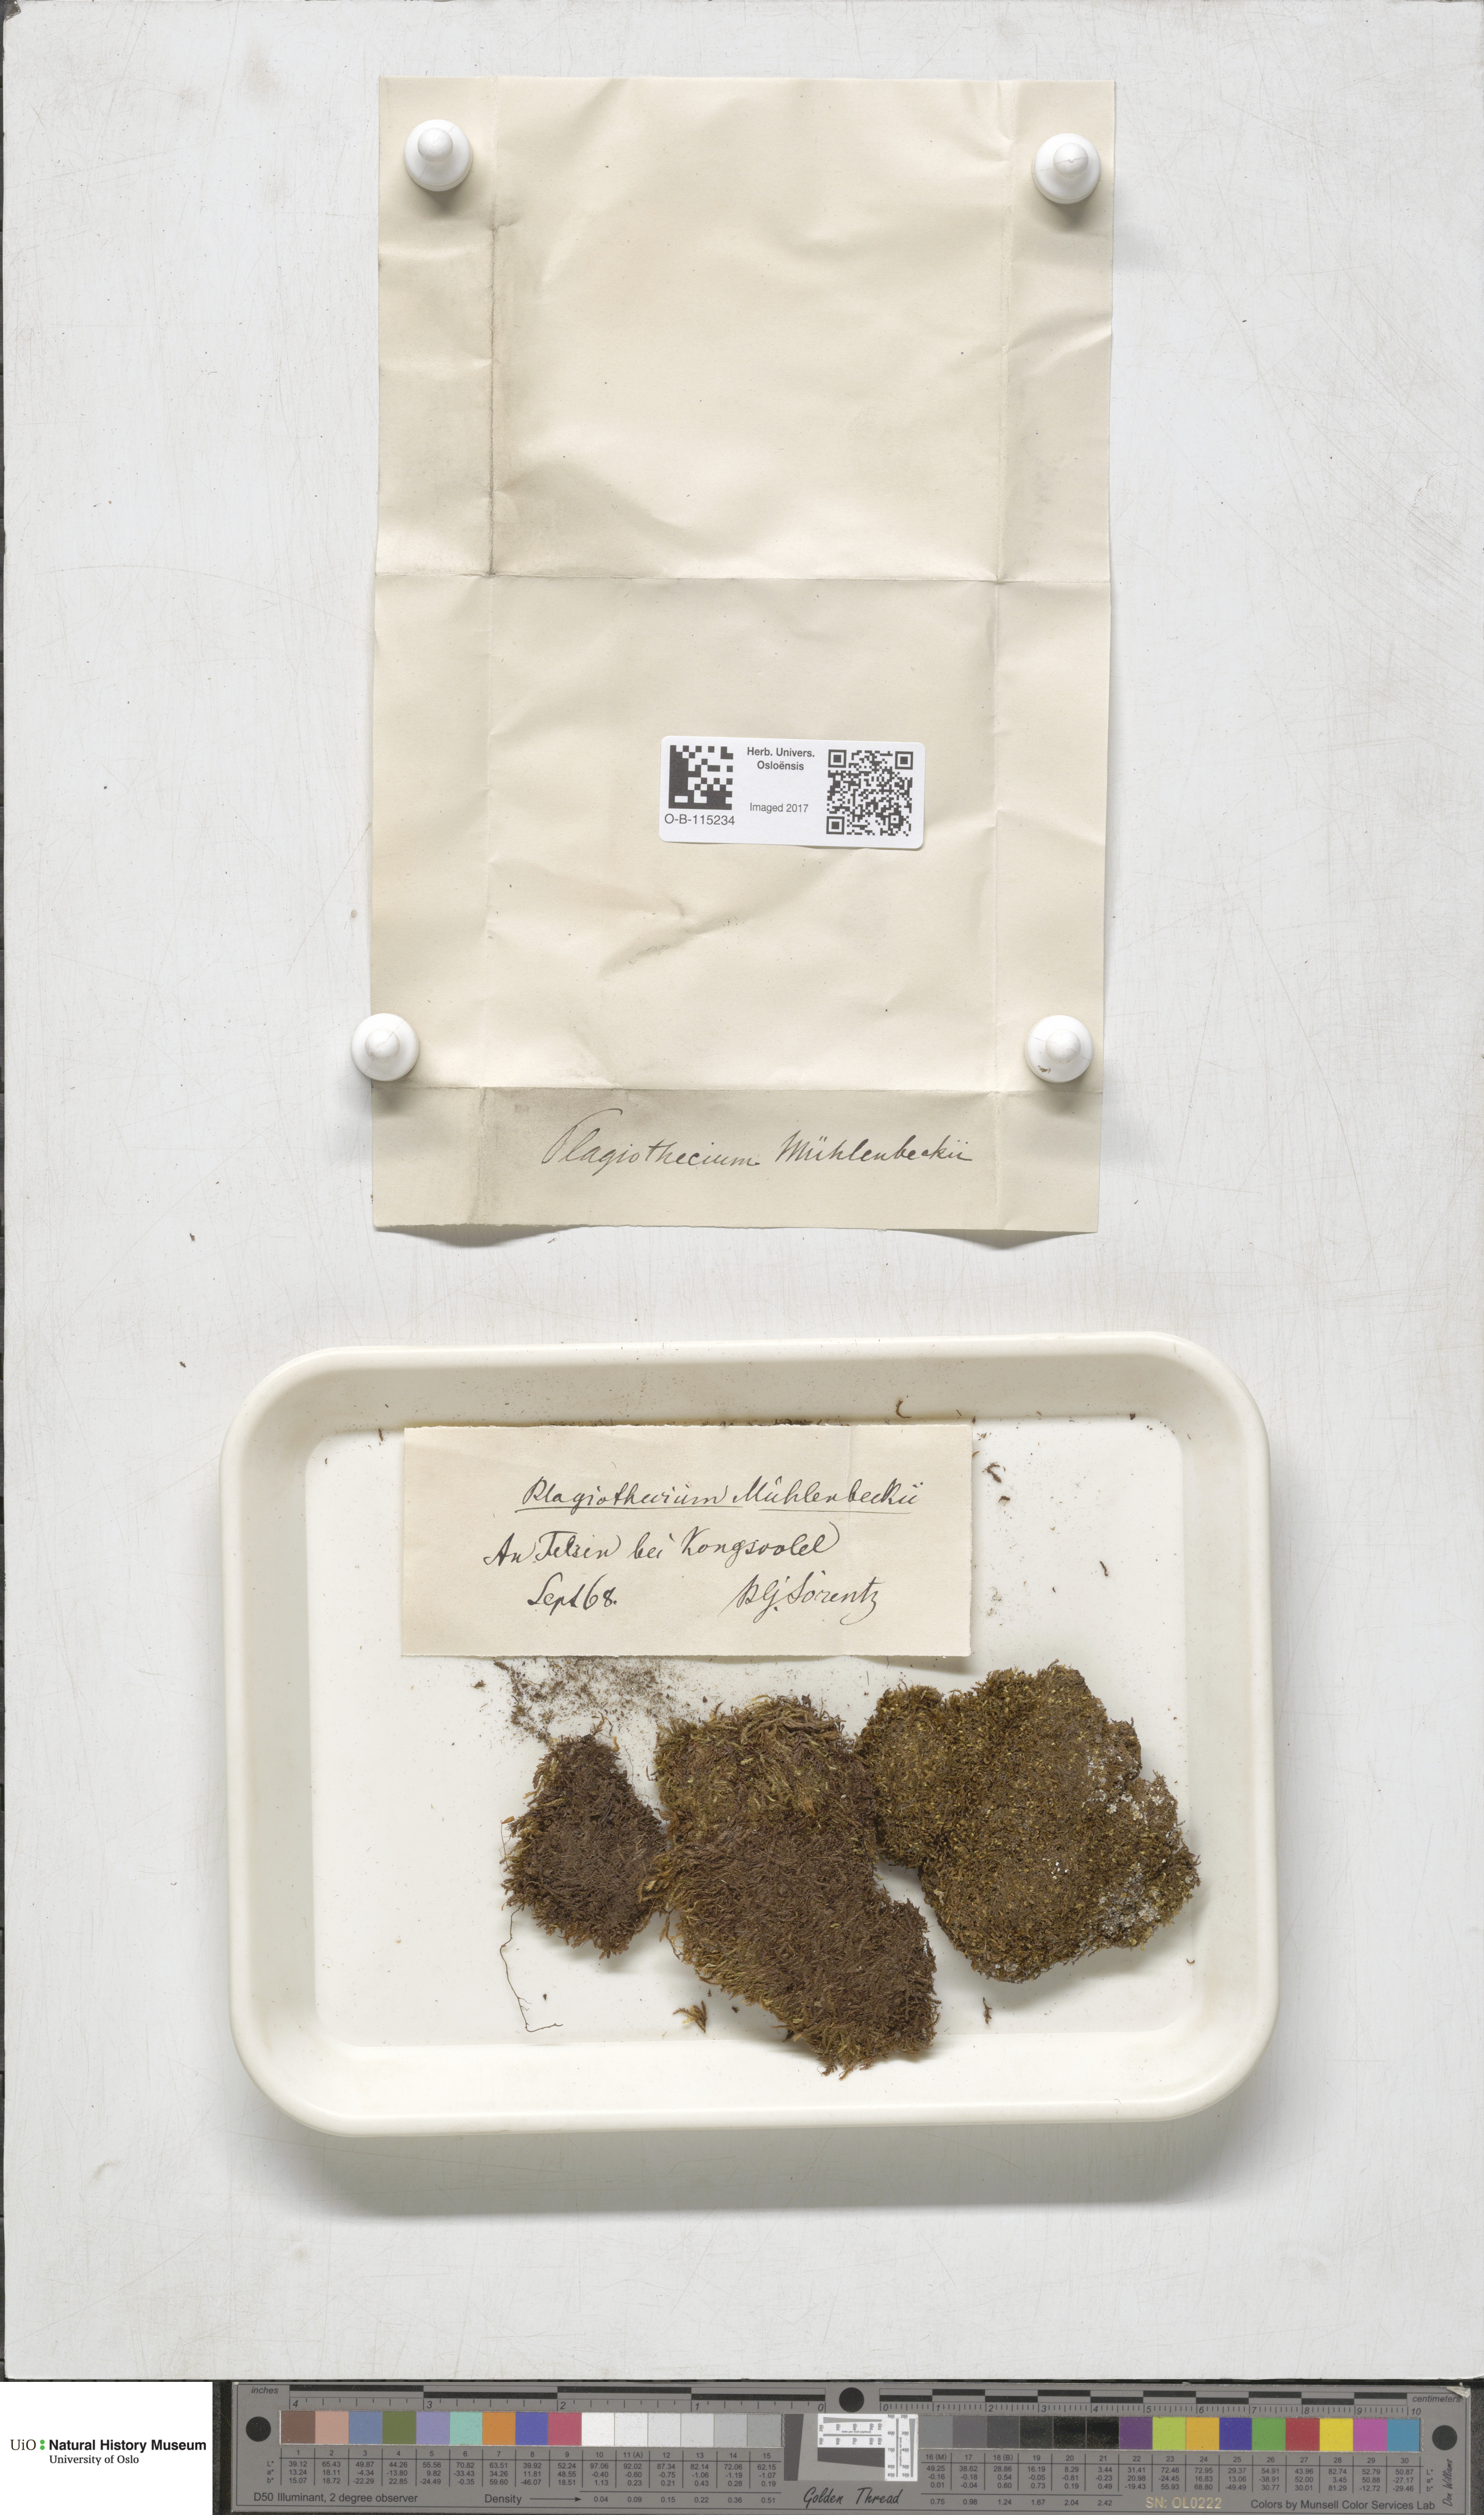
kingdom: Plantae
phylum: Bryophyta
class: Bryopsida
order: Hypnales
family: Plagiotheciaceae
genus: Herzogiella
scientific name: Herzogiella striatella
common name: Muhlenbeck's feather-moss
